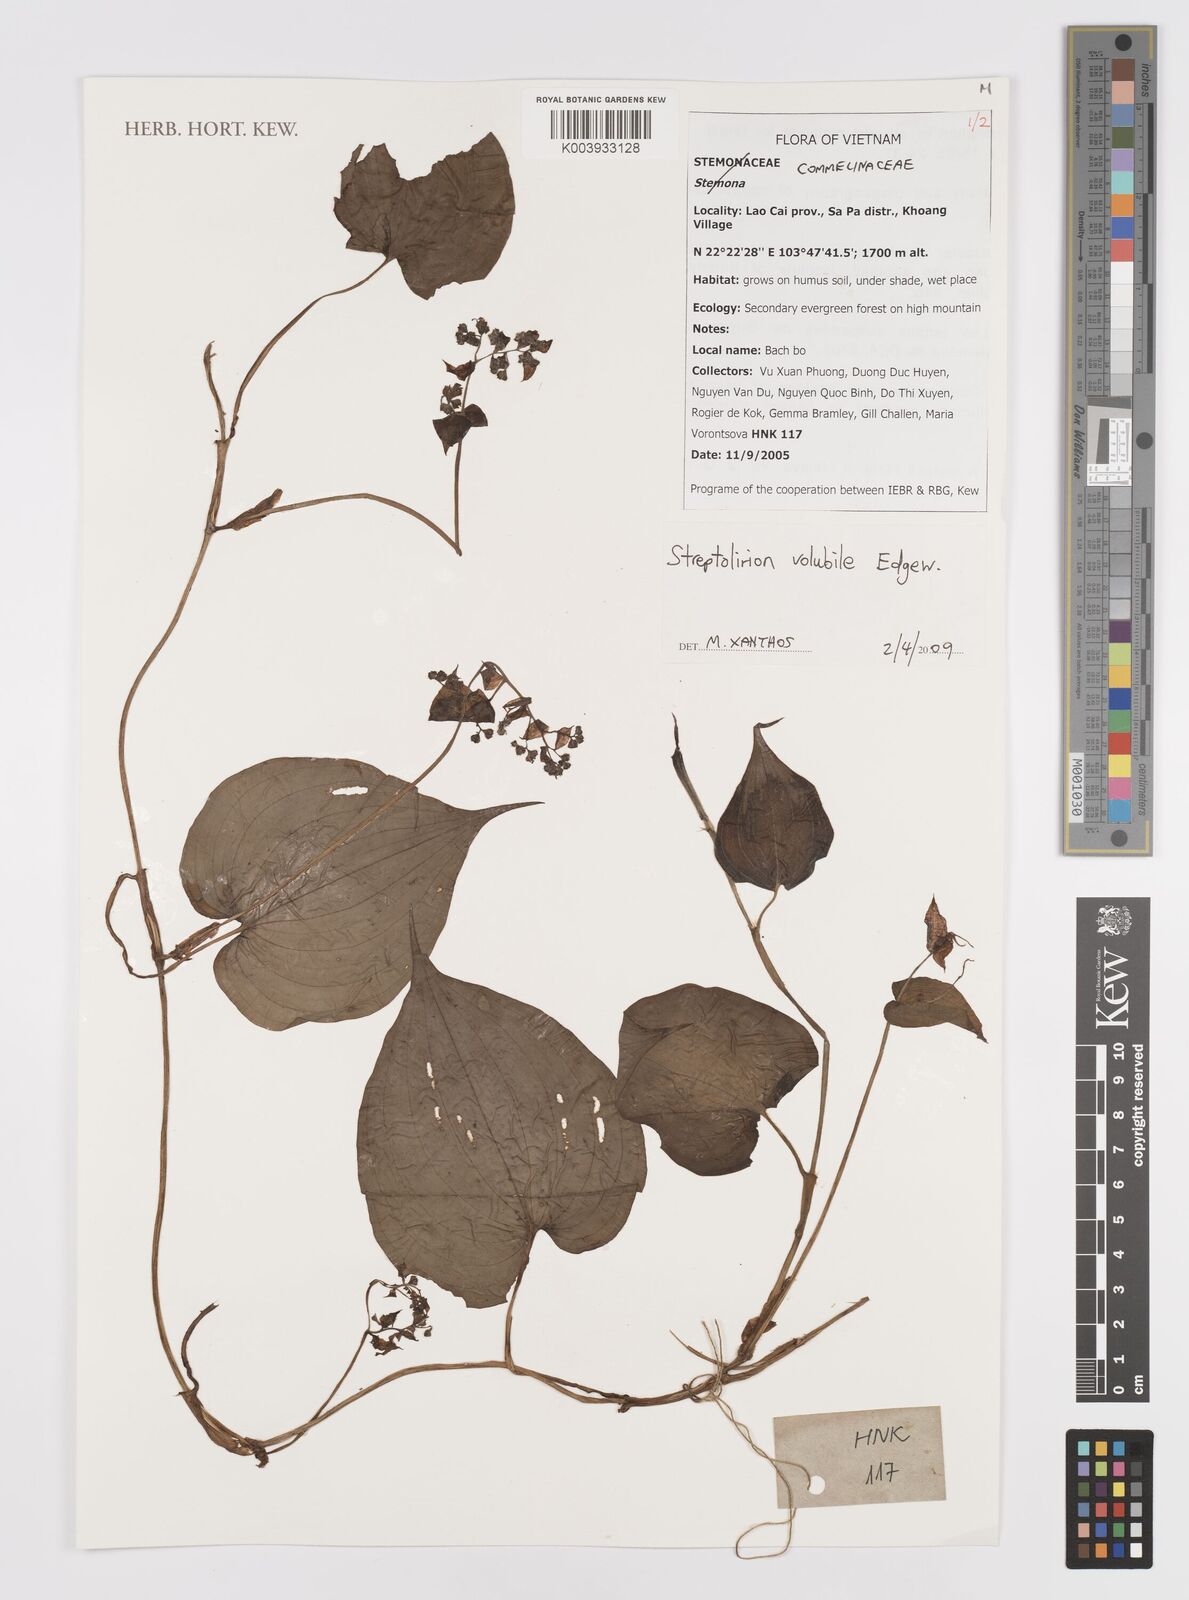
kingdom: Plantae
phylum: Tracheophyta
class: Liliopsida
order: Commelinales
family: Commelinaceae
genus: Streptolirion
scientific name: Streptolirion volubile
